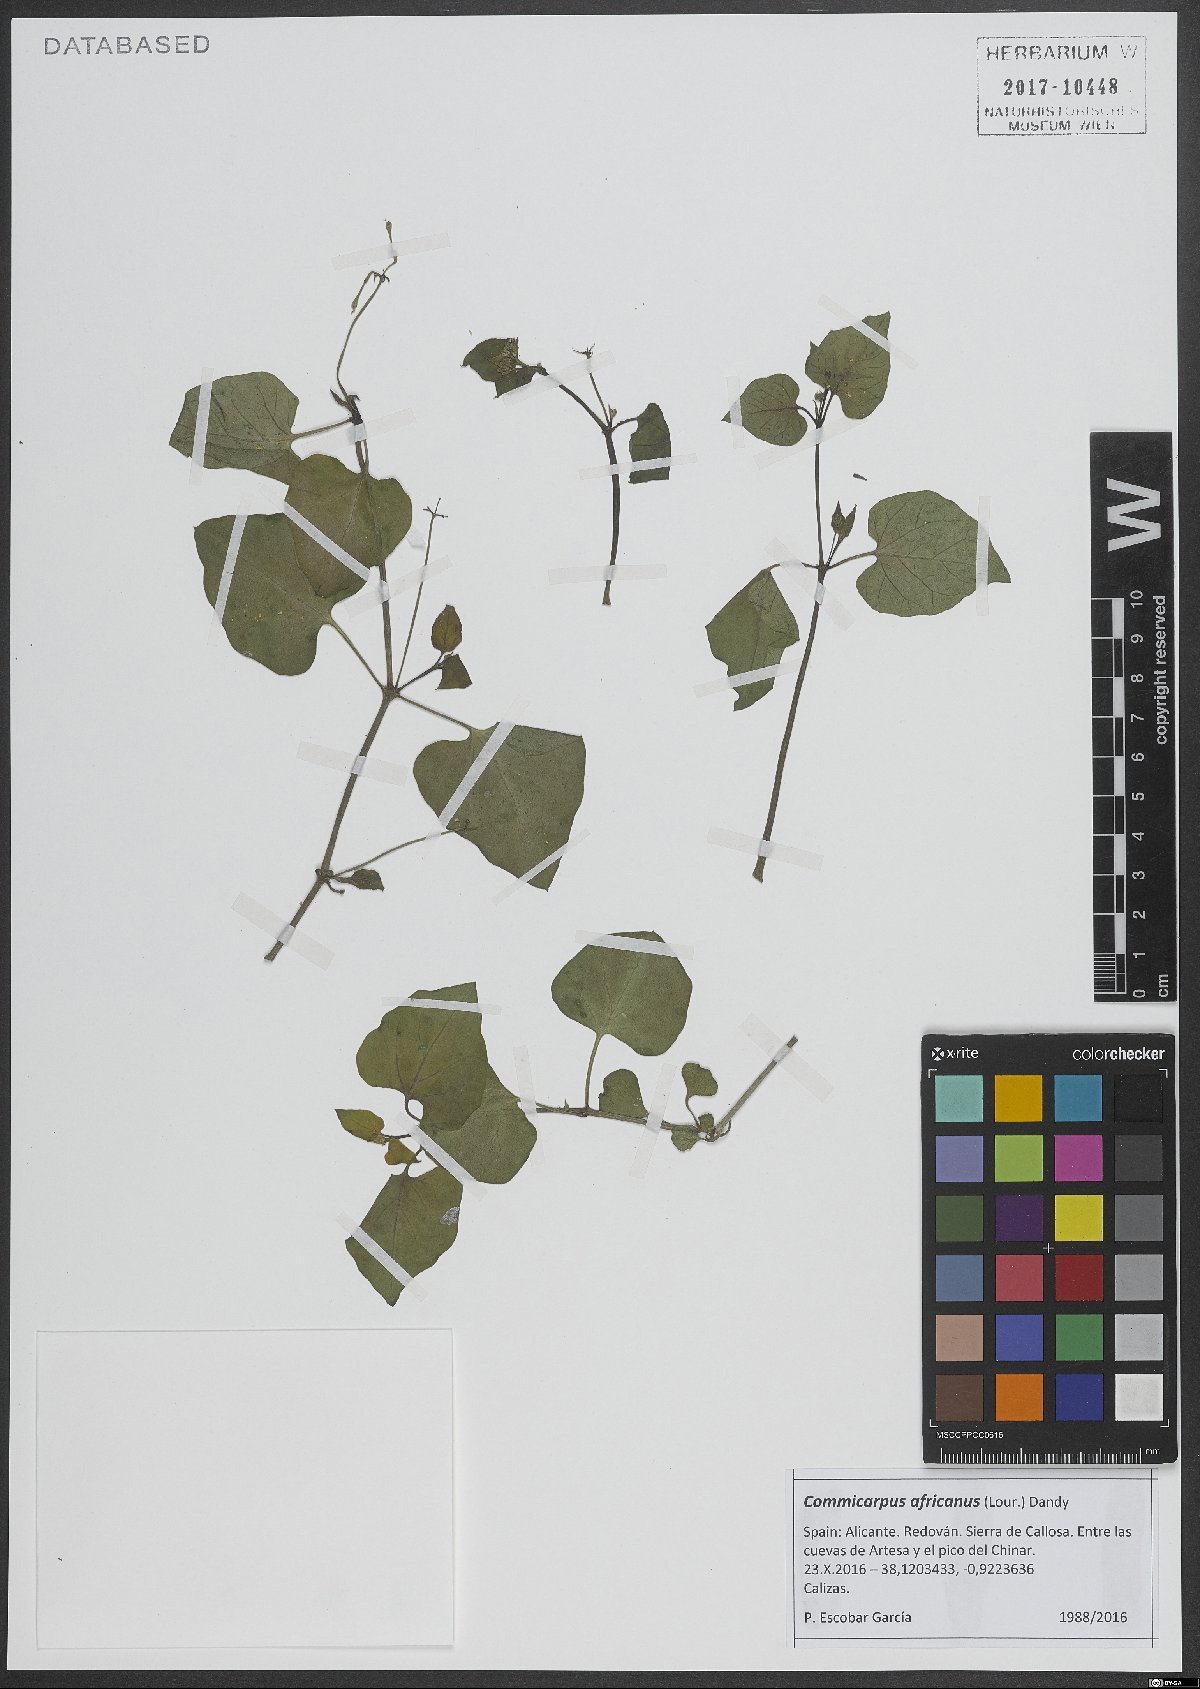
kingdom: Plantae
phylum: Tracheophyta
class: Magnoliopsida
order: Caryophyllales
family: Gisekiaceae
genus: Gisekia
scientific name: Gisekia africana
